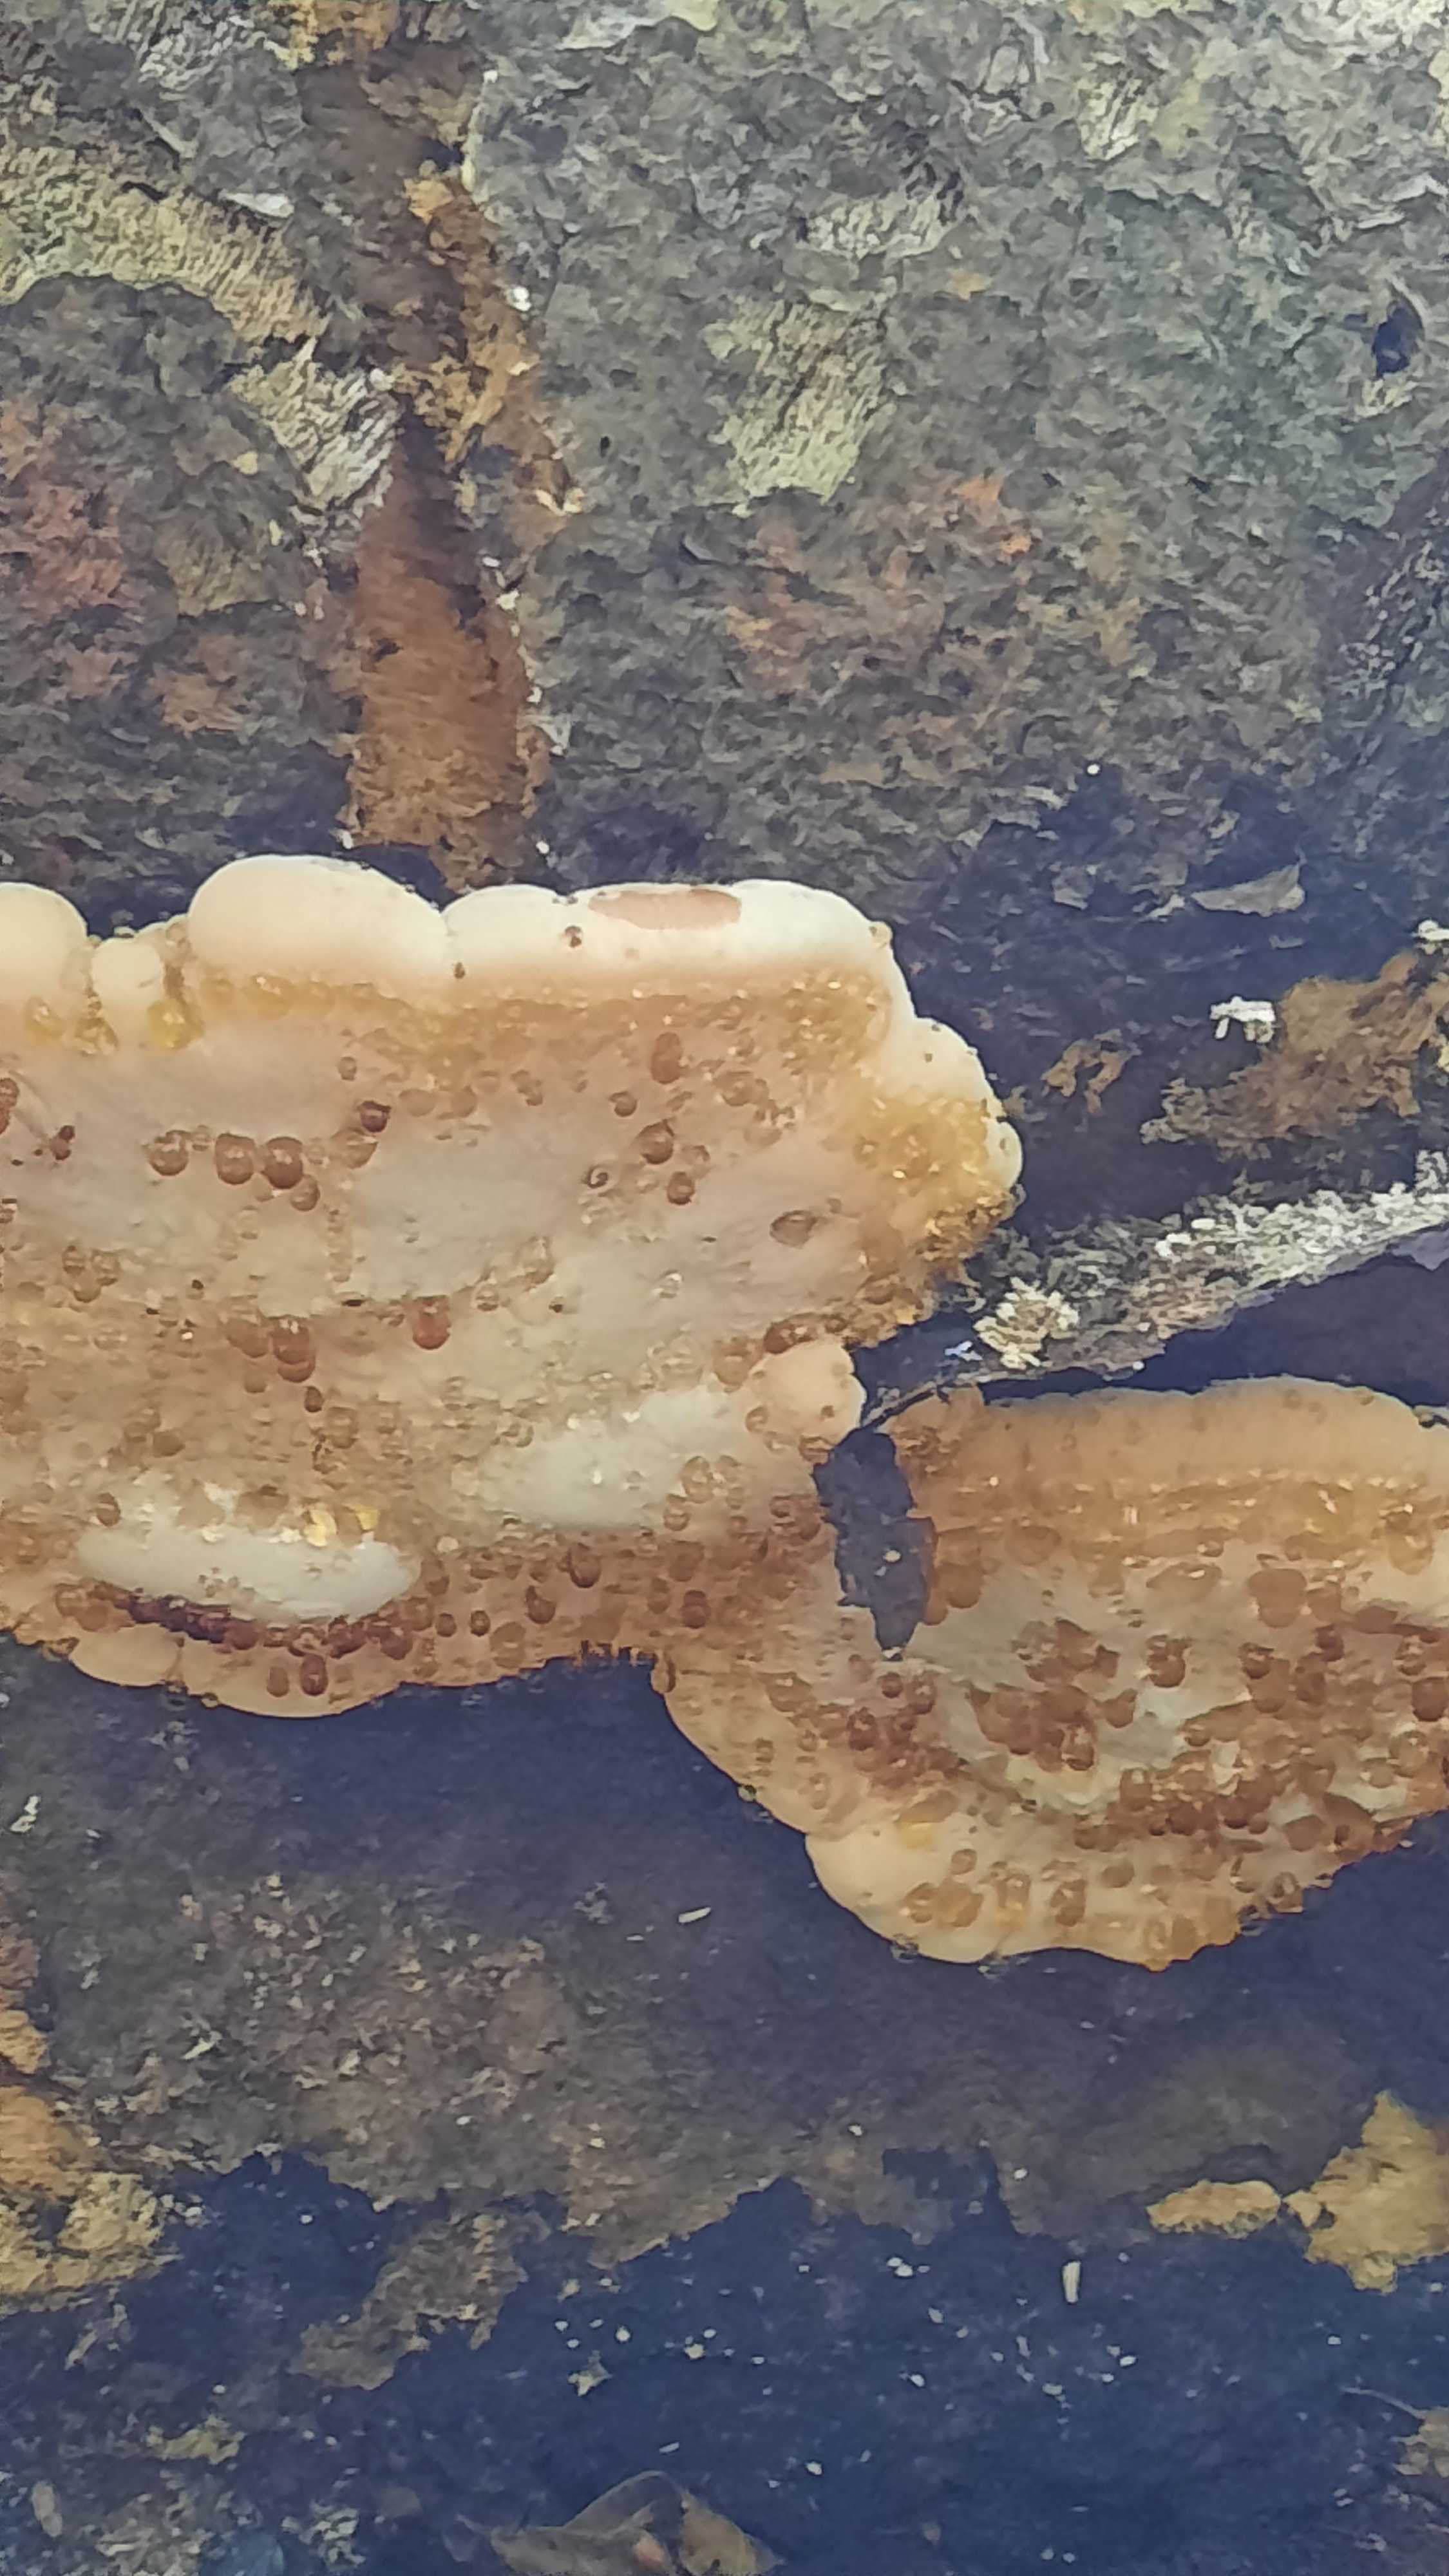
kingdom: Fungi
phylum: Basidiomycota
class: Agaricomycetes
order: Polyporales
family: Ischnodermataceae
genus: Ischnoderma
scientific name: Ischnoderma resinosum
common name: løv-tjæreporesvamp
